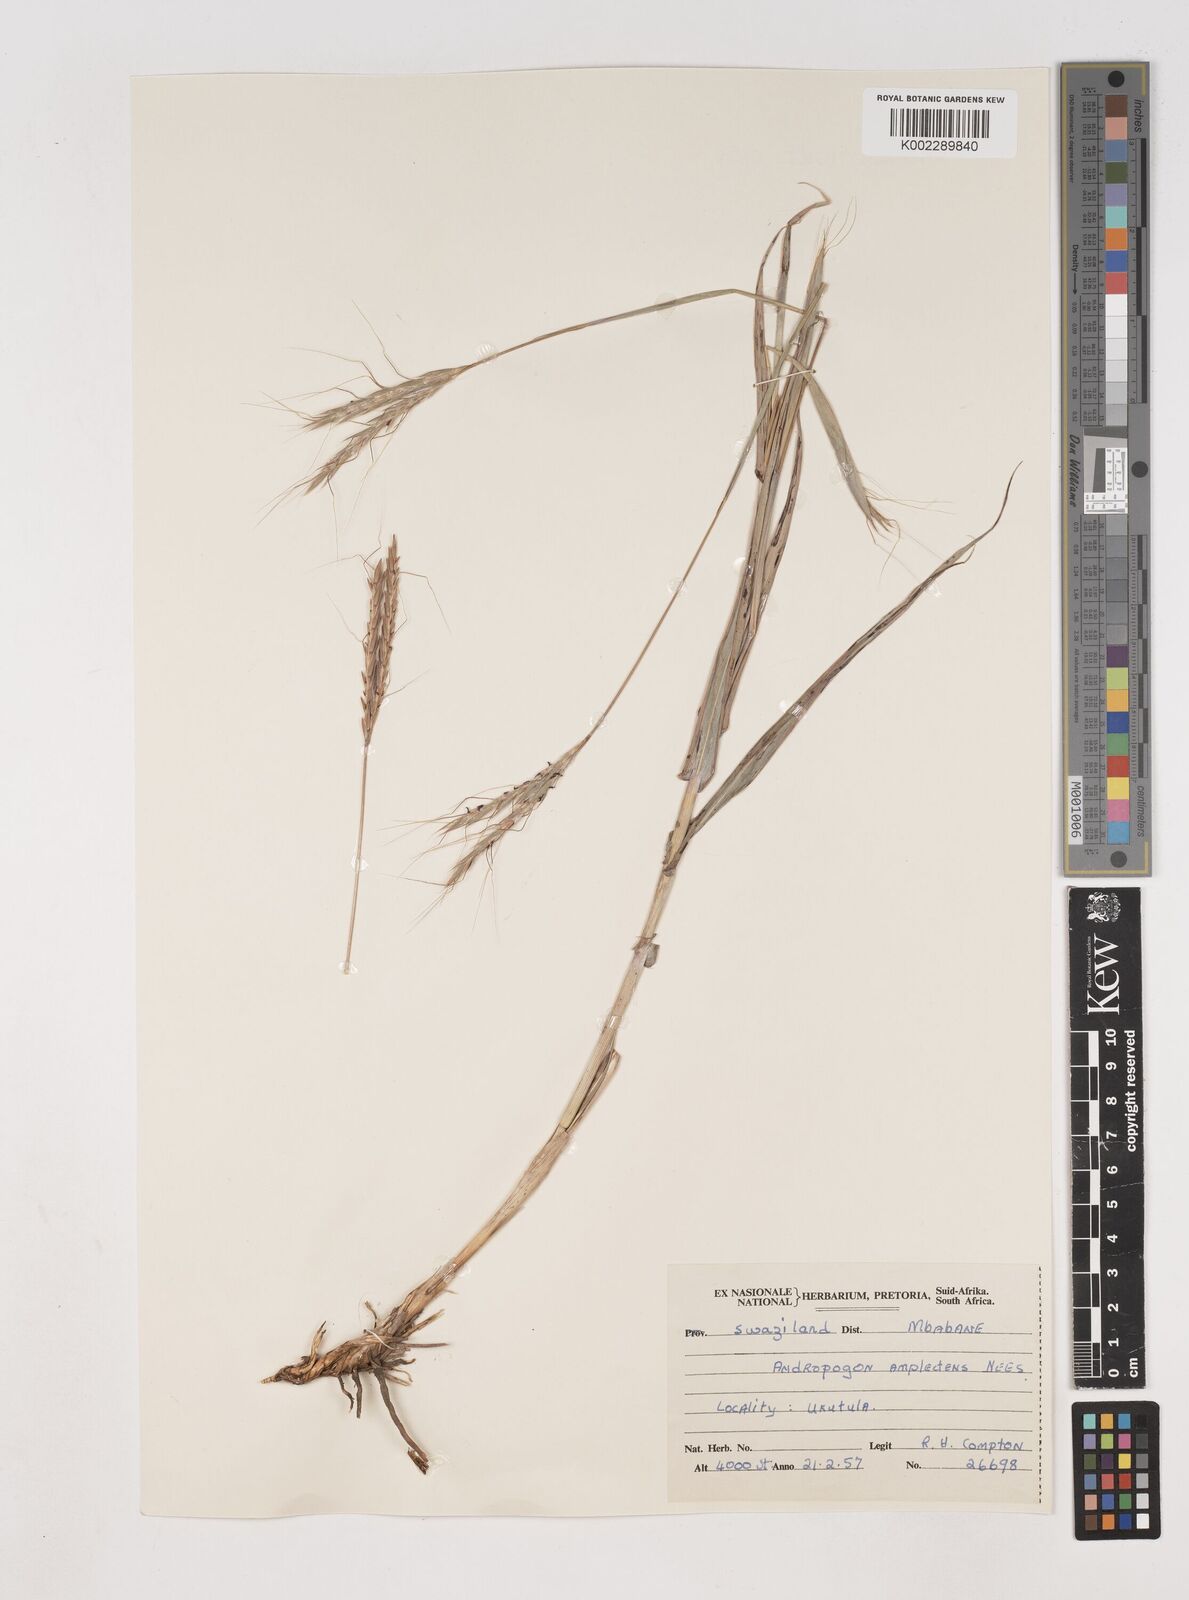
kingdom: Plantae
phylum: Tracheophyta
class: Liliopsida
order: Poales
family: Poaceae
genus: Diheteropogon
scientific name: Diheteropogon amplectens
